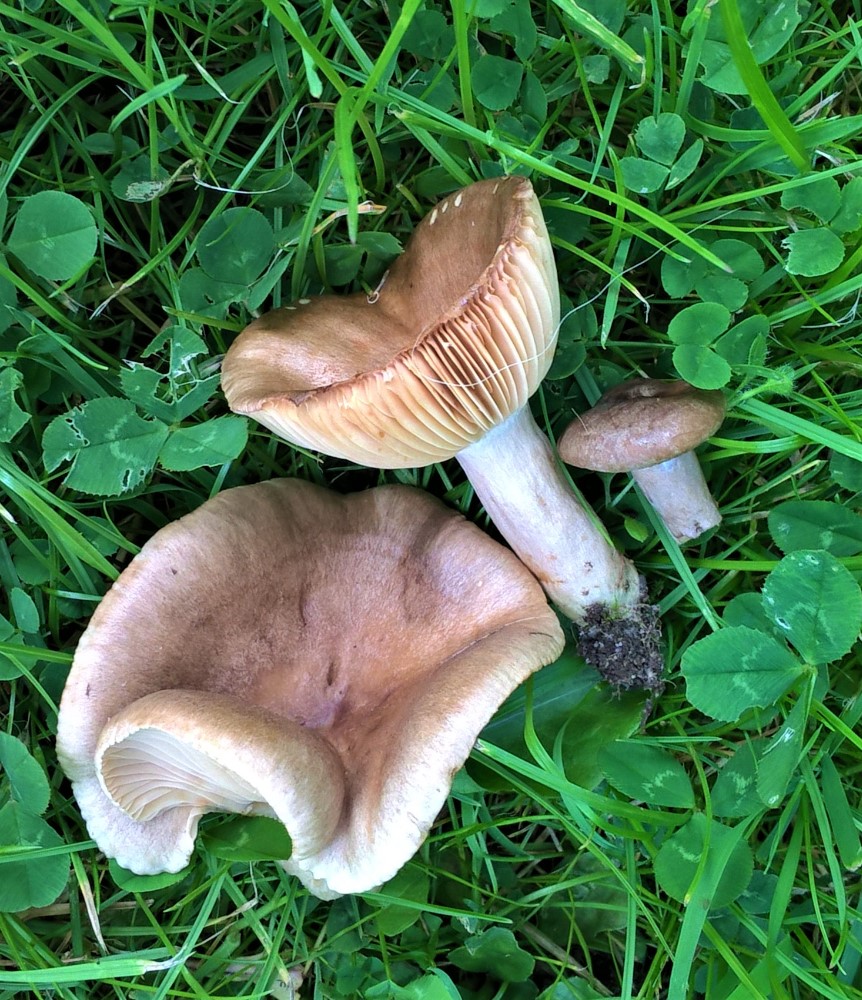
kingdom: Fungi
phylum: Basidiomycota
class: Agaricomycetes
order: Russulales
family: Russulaceae
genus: Lactarius
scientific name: Lactarius pyrogalus
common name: hassel-mælkehat
